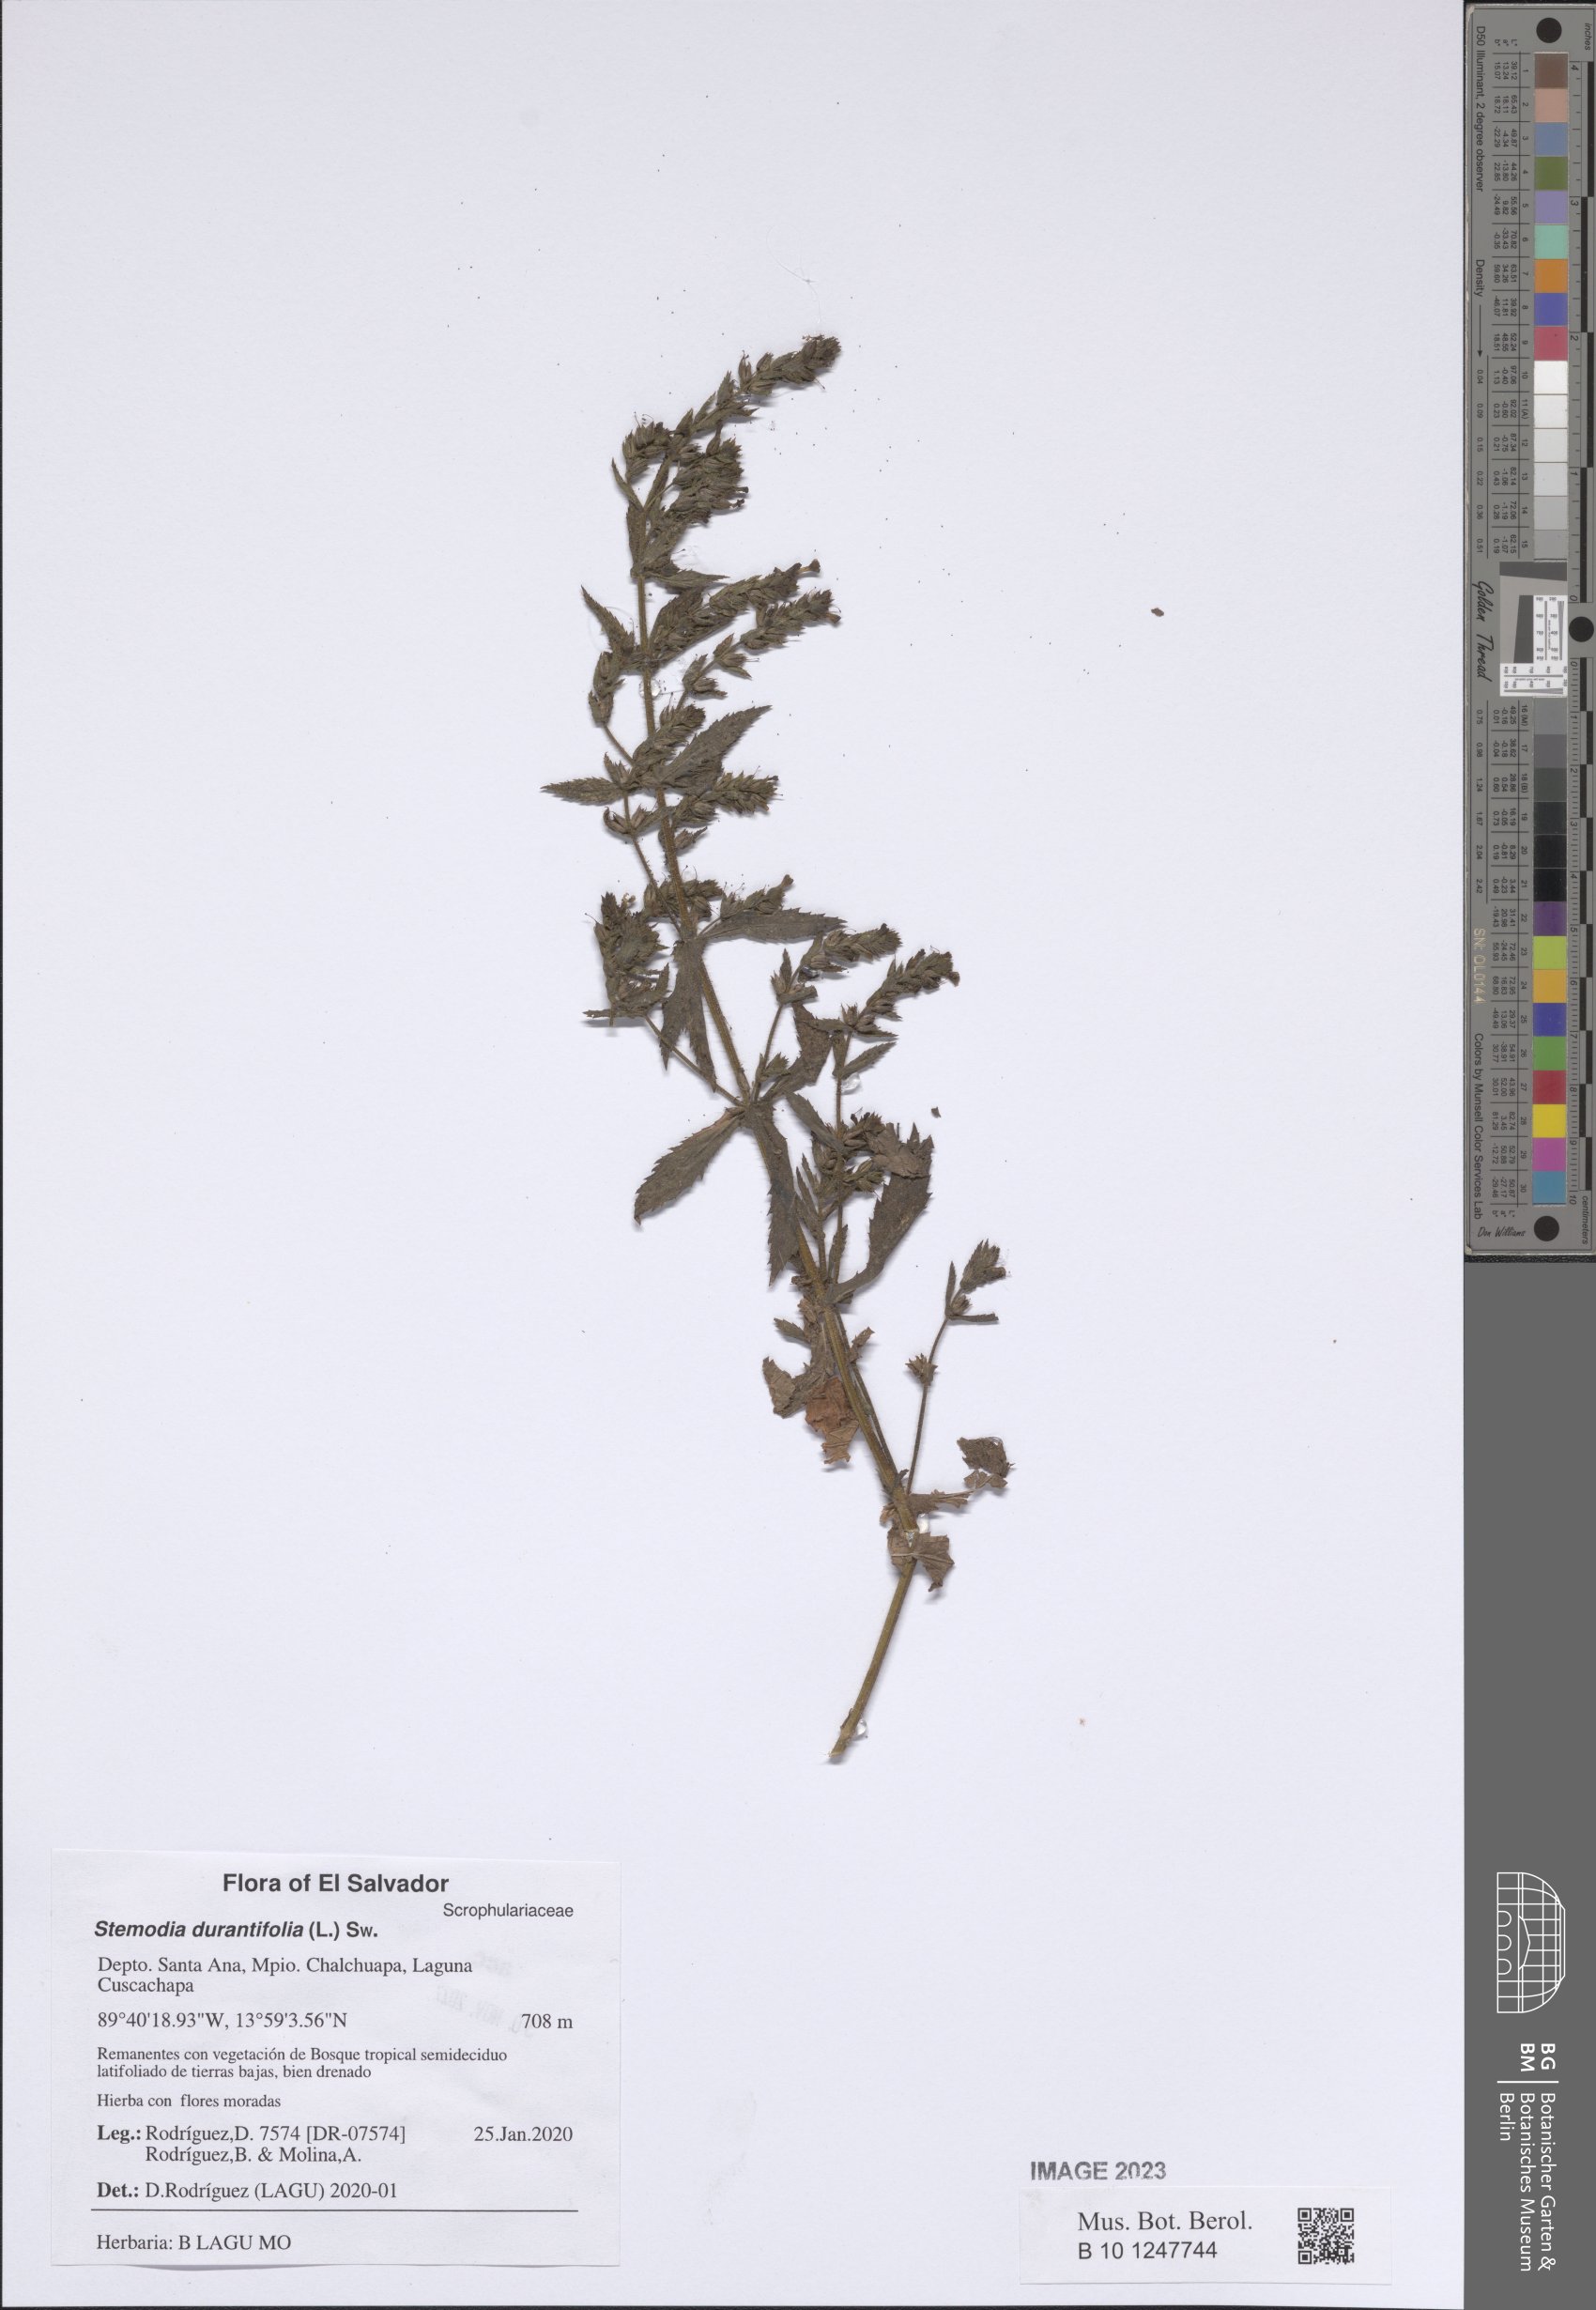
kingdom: Plantae
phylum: Tracheophyta
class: Magnoliopsida
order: Lamiales
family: Plantaginaceae
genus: Stemodia
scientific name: Stemodia durantifolia
